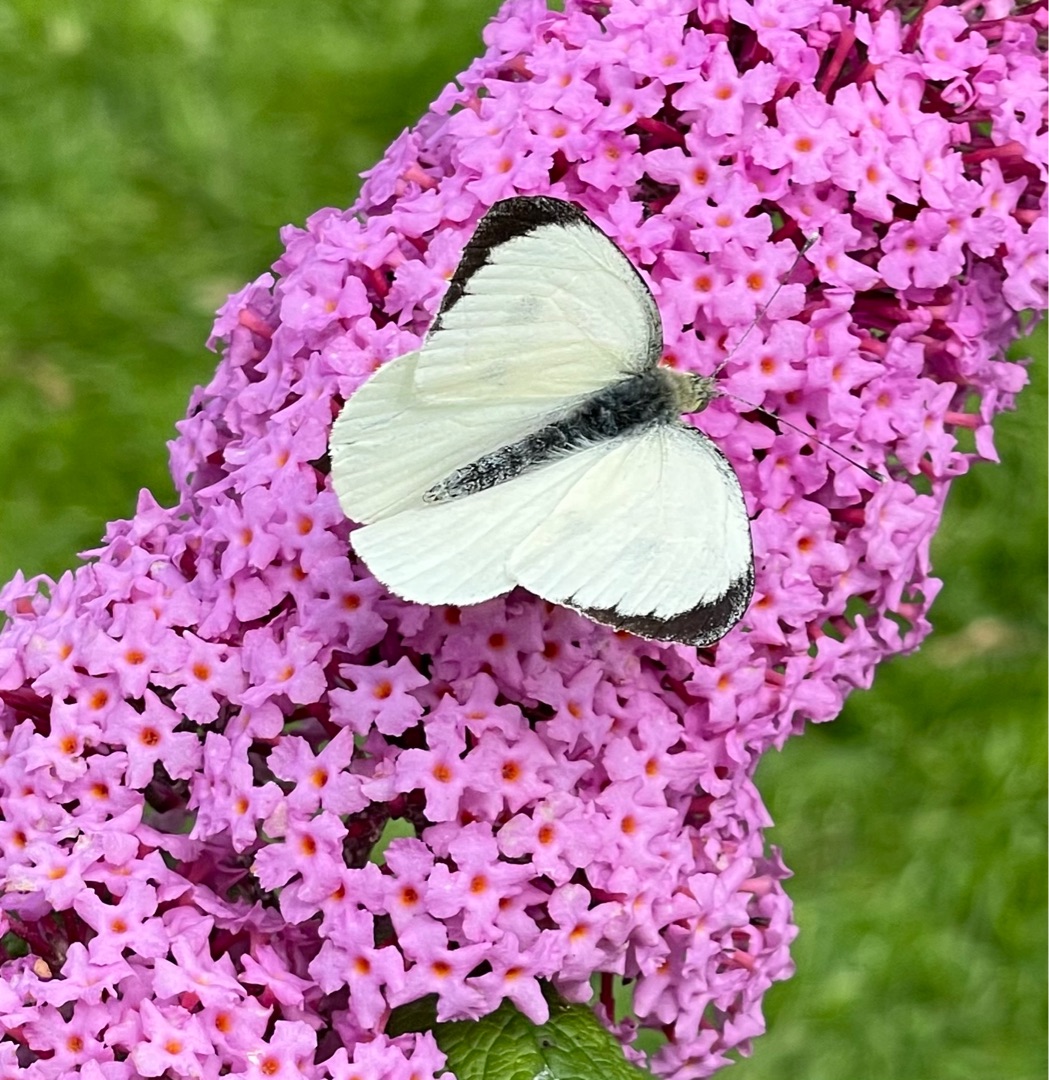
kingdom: Animalia
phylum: Arthropoda
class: Insecta
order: Lepidoptera
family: Pieridae
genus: Pieris
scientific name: Pieris brassicae
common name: Stor kålsommerfugl
